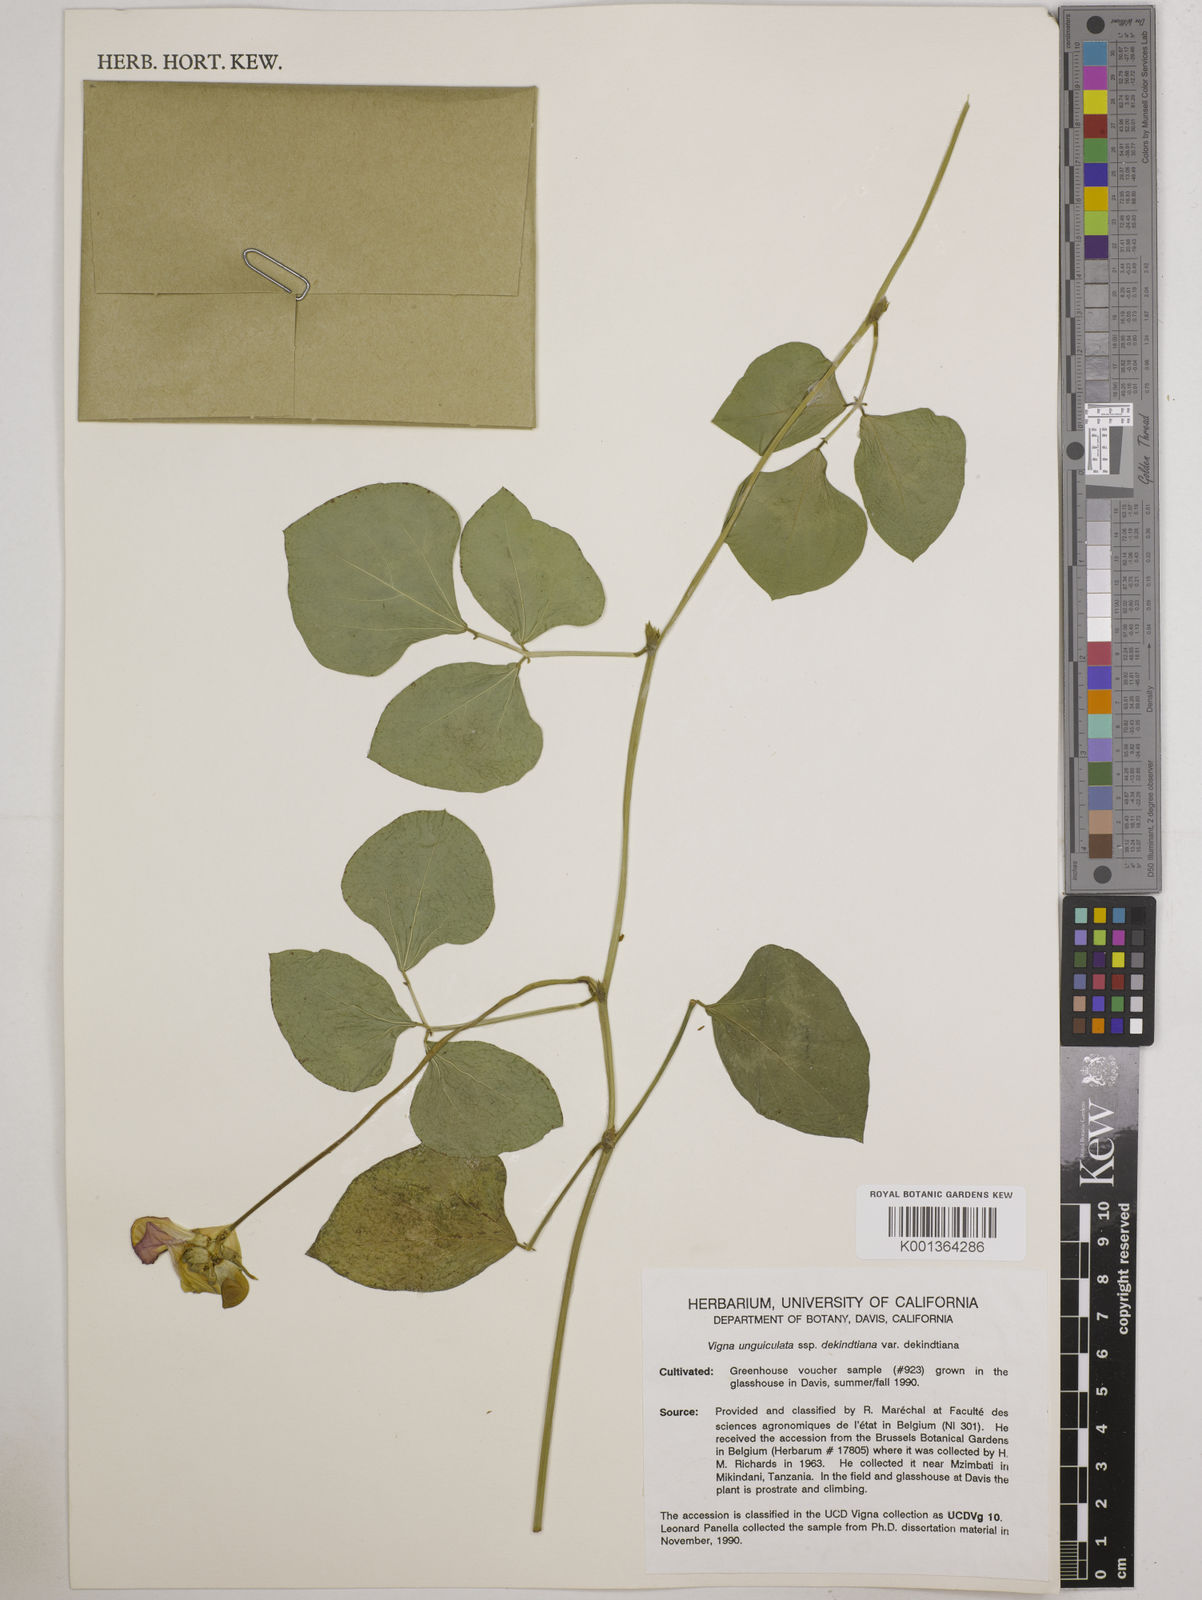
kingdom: Plantae
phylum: Tracheophyta
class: Magnoliopsida
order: Fabales
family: Fabaceae
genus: Vigna
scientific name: Vigna
